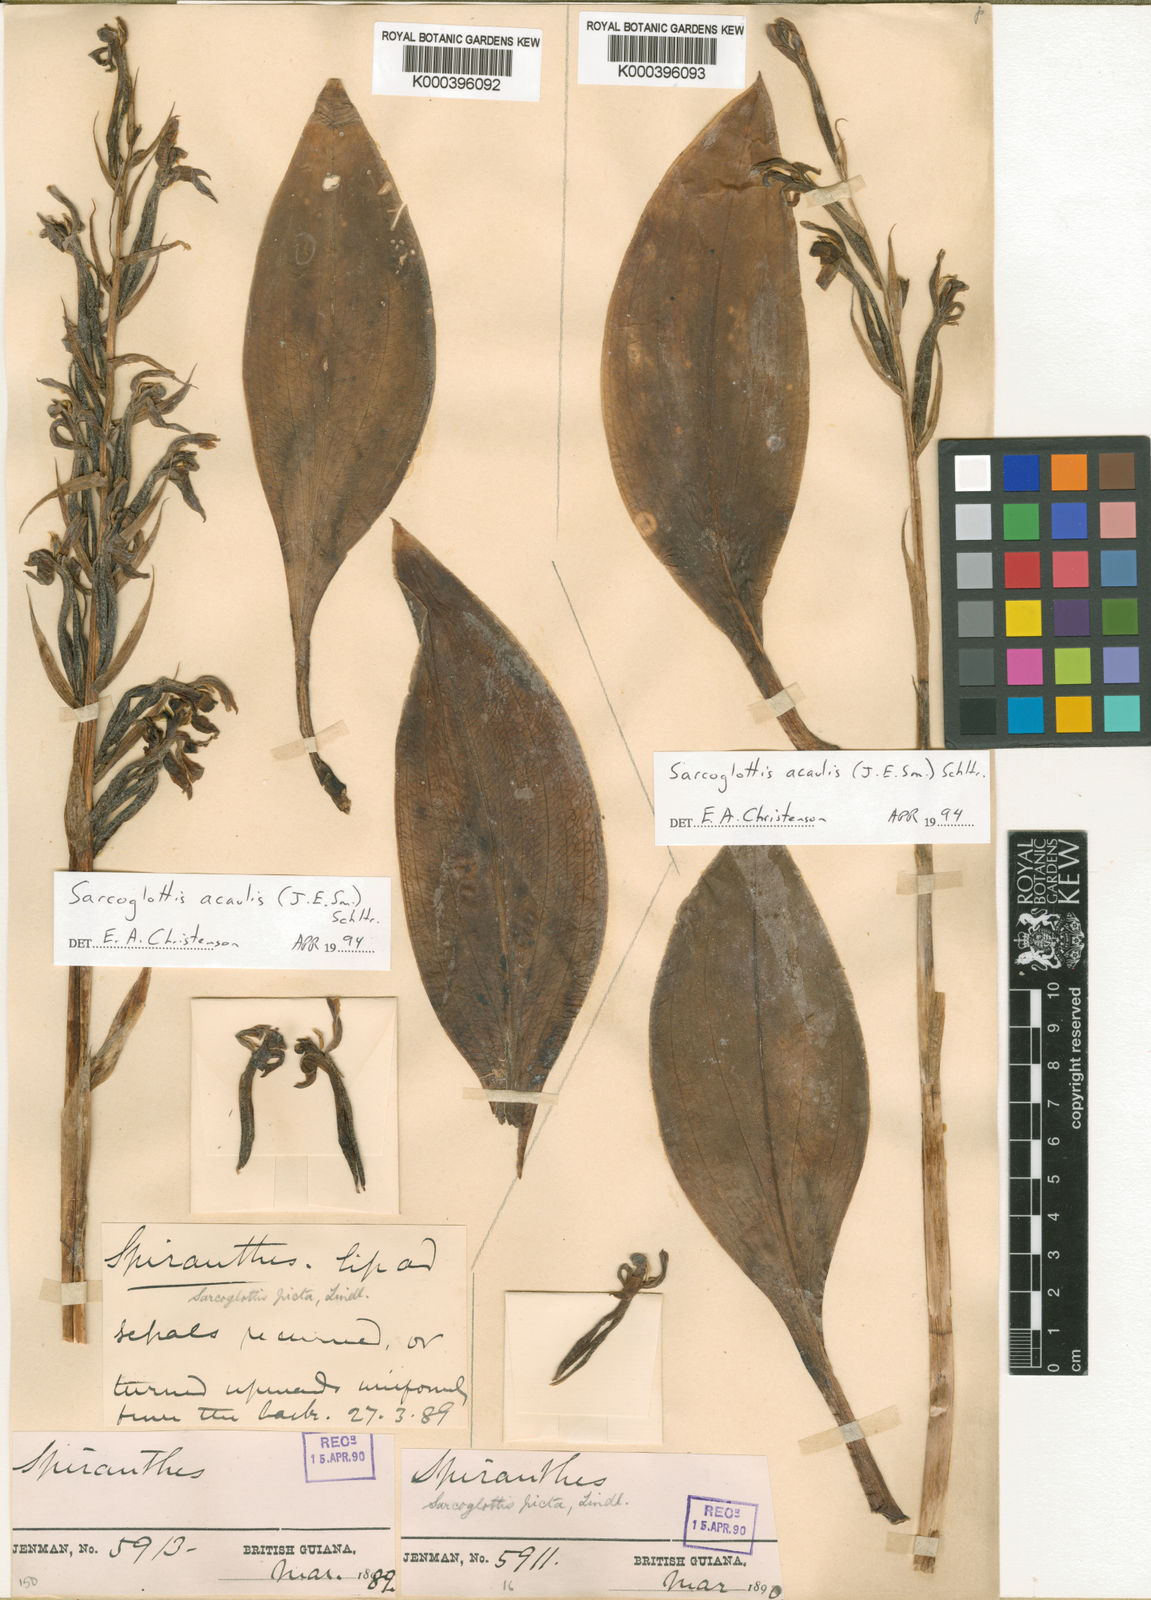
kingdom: Plantae
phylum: Tracheophyta
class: Liliopsida
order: Asparagales
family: Orchidaceae
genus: Sarcoglottis
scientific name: Sarcoglottis acaulis
